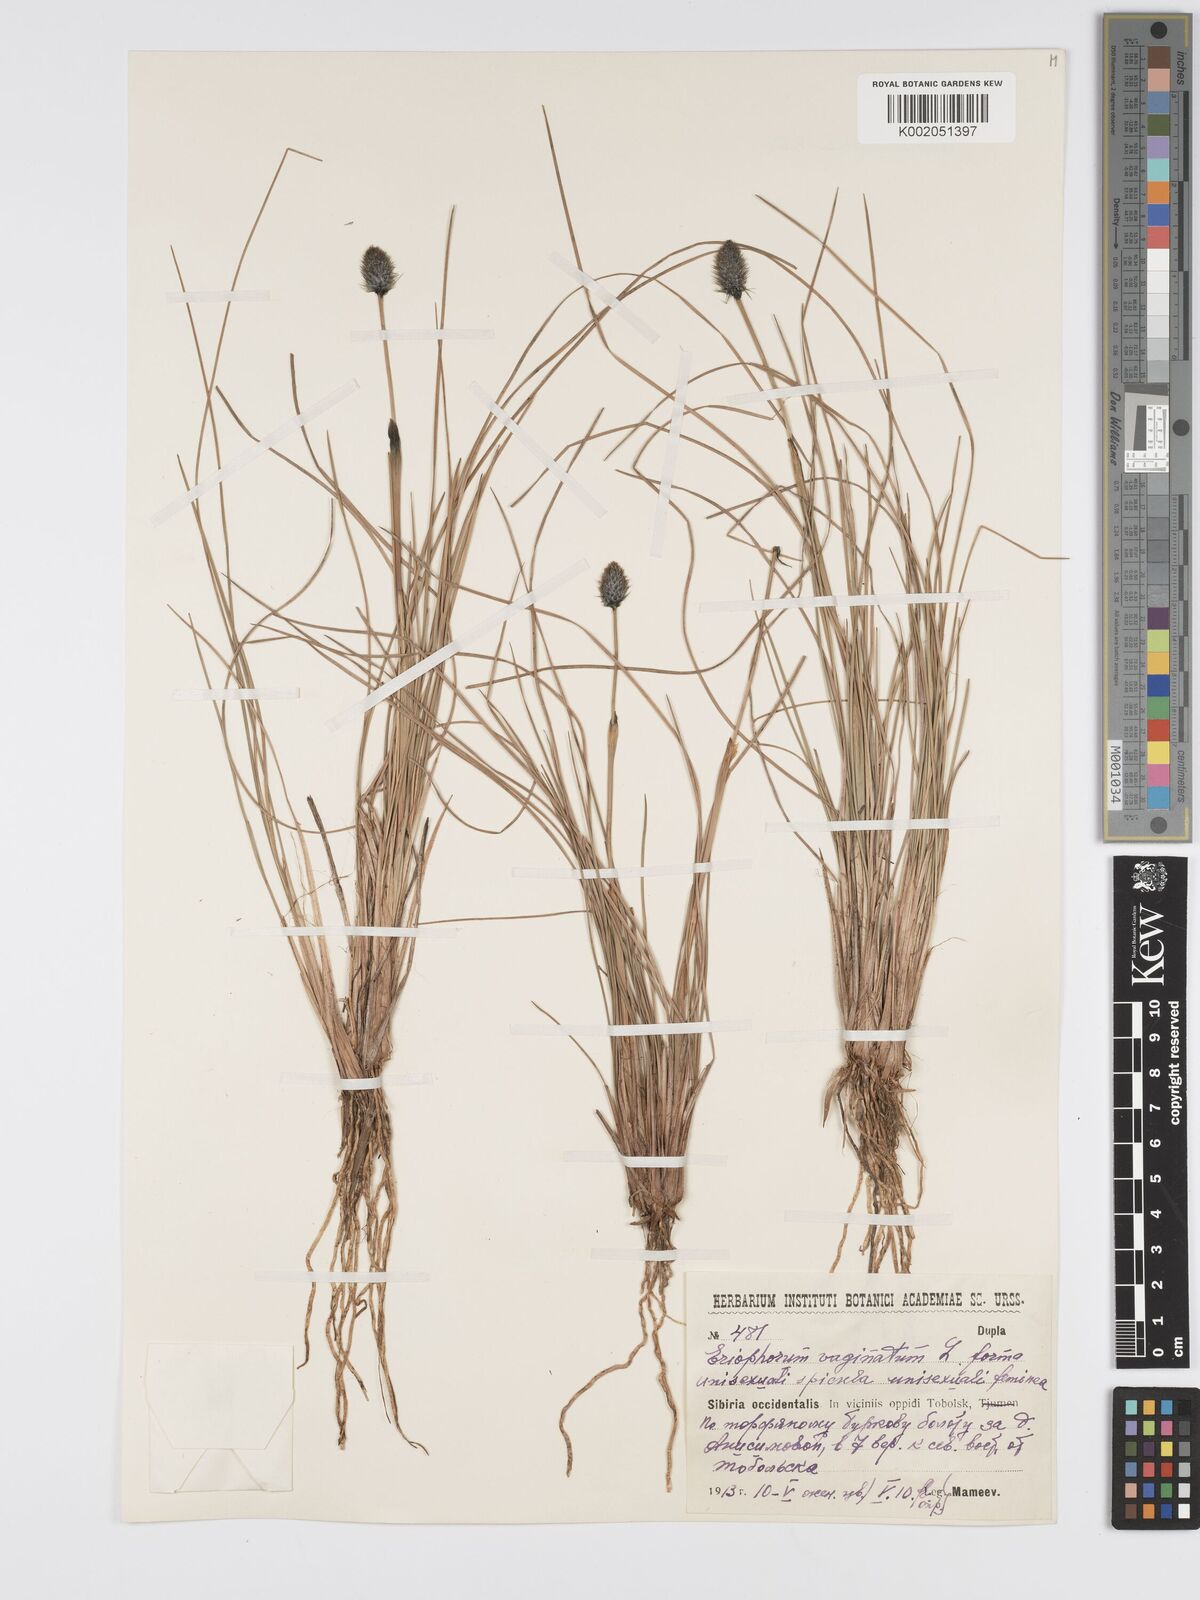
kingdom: Plantae
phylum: Tracheophyta
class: Liliopsida
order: Poales
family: Cyperaceae
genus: Eriophorum
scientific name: Eriophorum vaginatum
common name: Hare's-tail cottongrass
